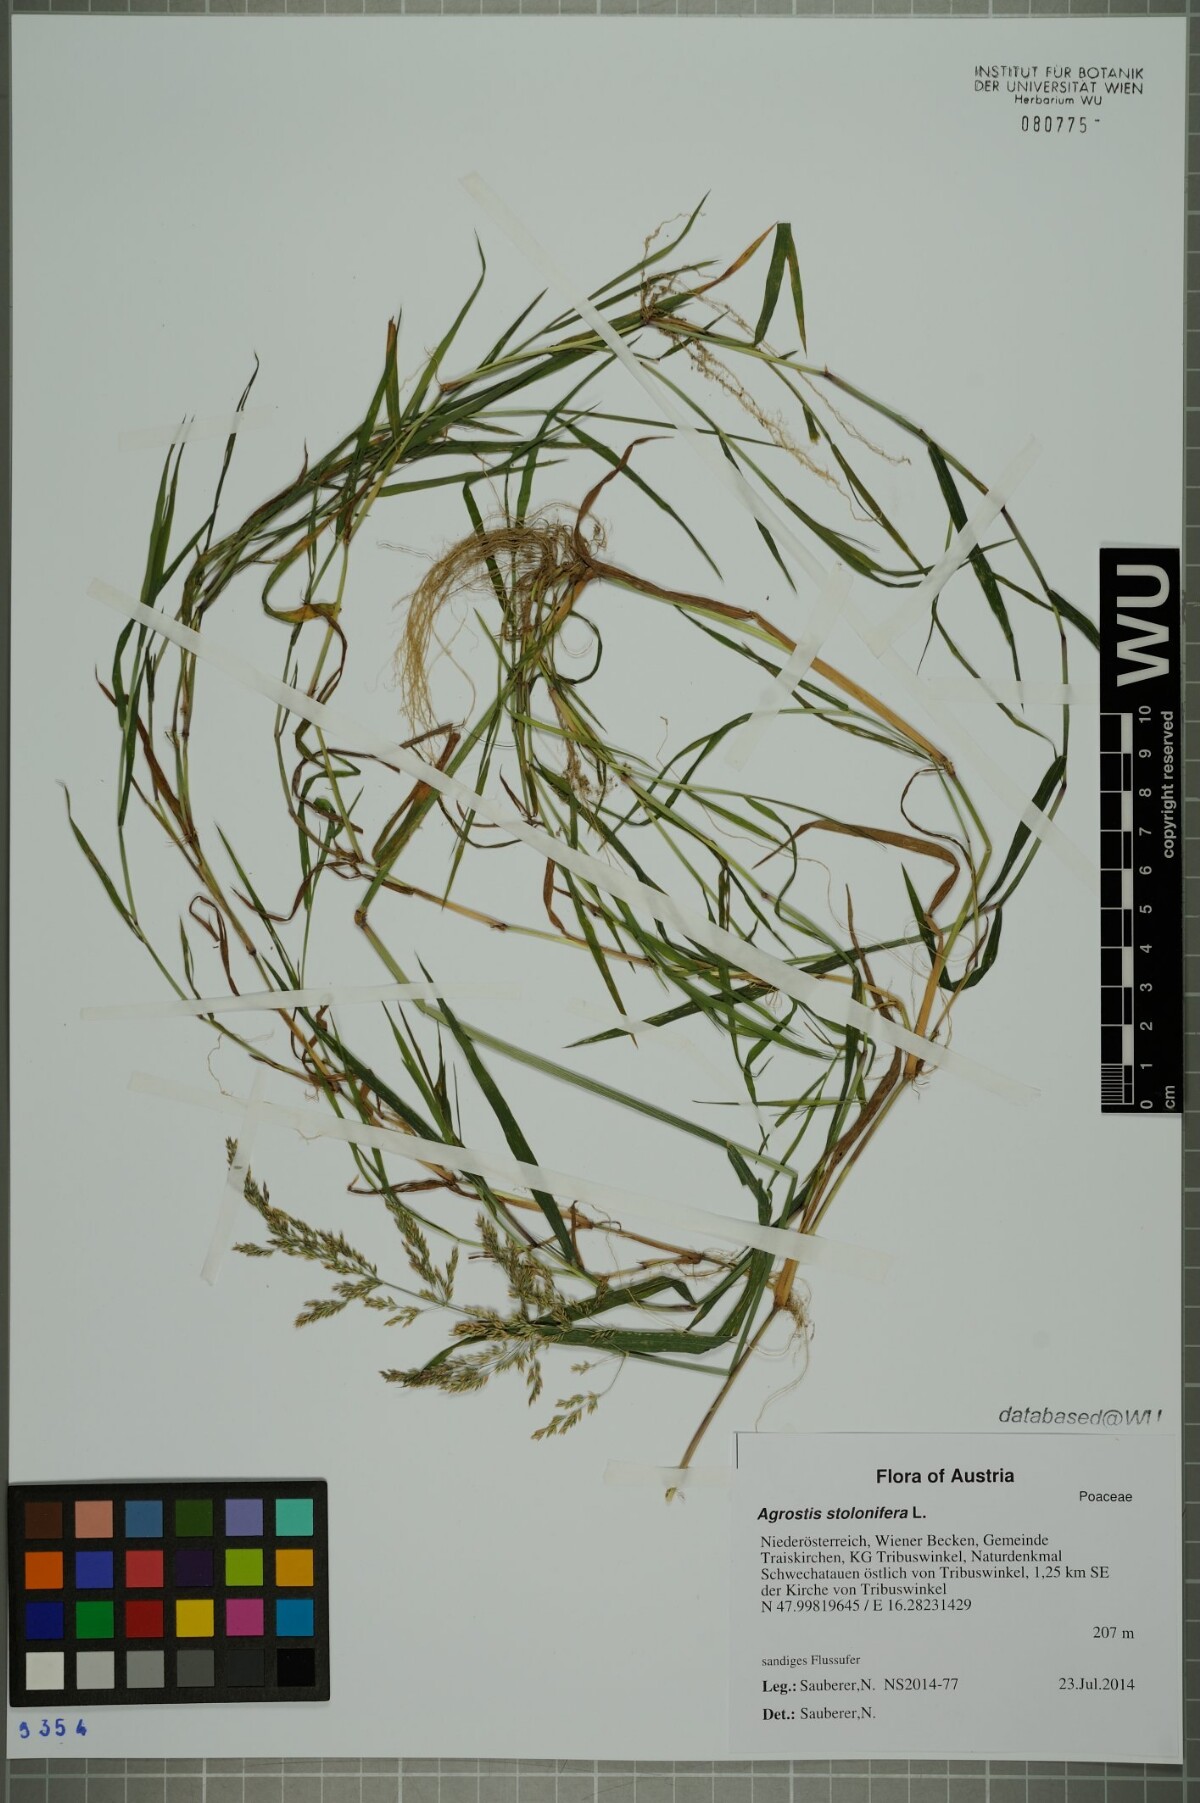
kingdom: Plantae
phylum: Tracheophyta
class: Liliopsida
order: Poales
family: Poaceae
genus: Agrostis
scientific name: Agrostis stolonifera
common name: Creeping bentgrass
